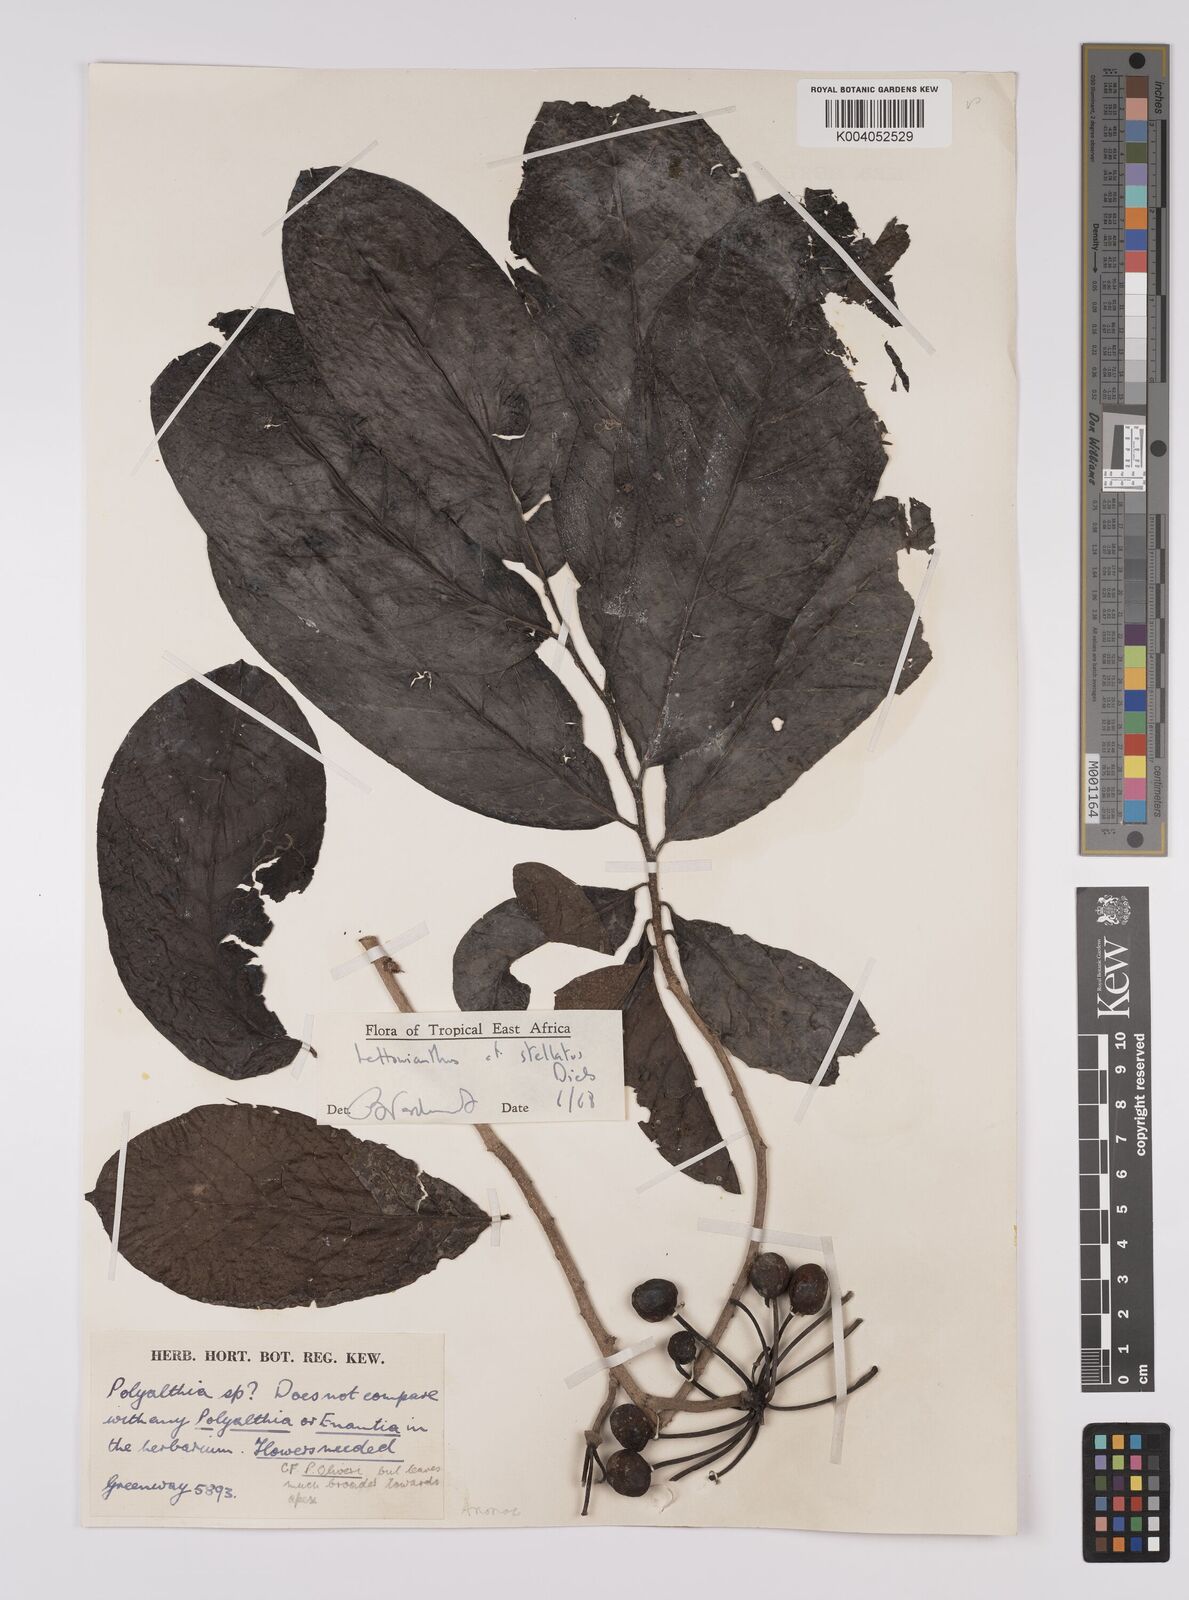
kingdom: Plantae
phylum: Tracheophyta
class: Magnoliopsida
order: Magnoliales
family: Annonaceae
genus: Lettowianthus
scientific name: Lettowianthus
